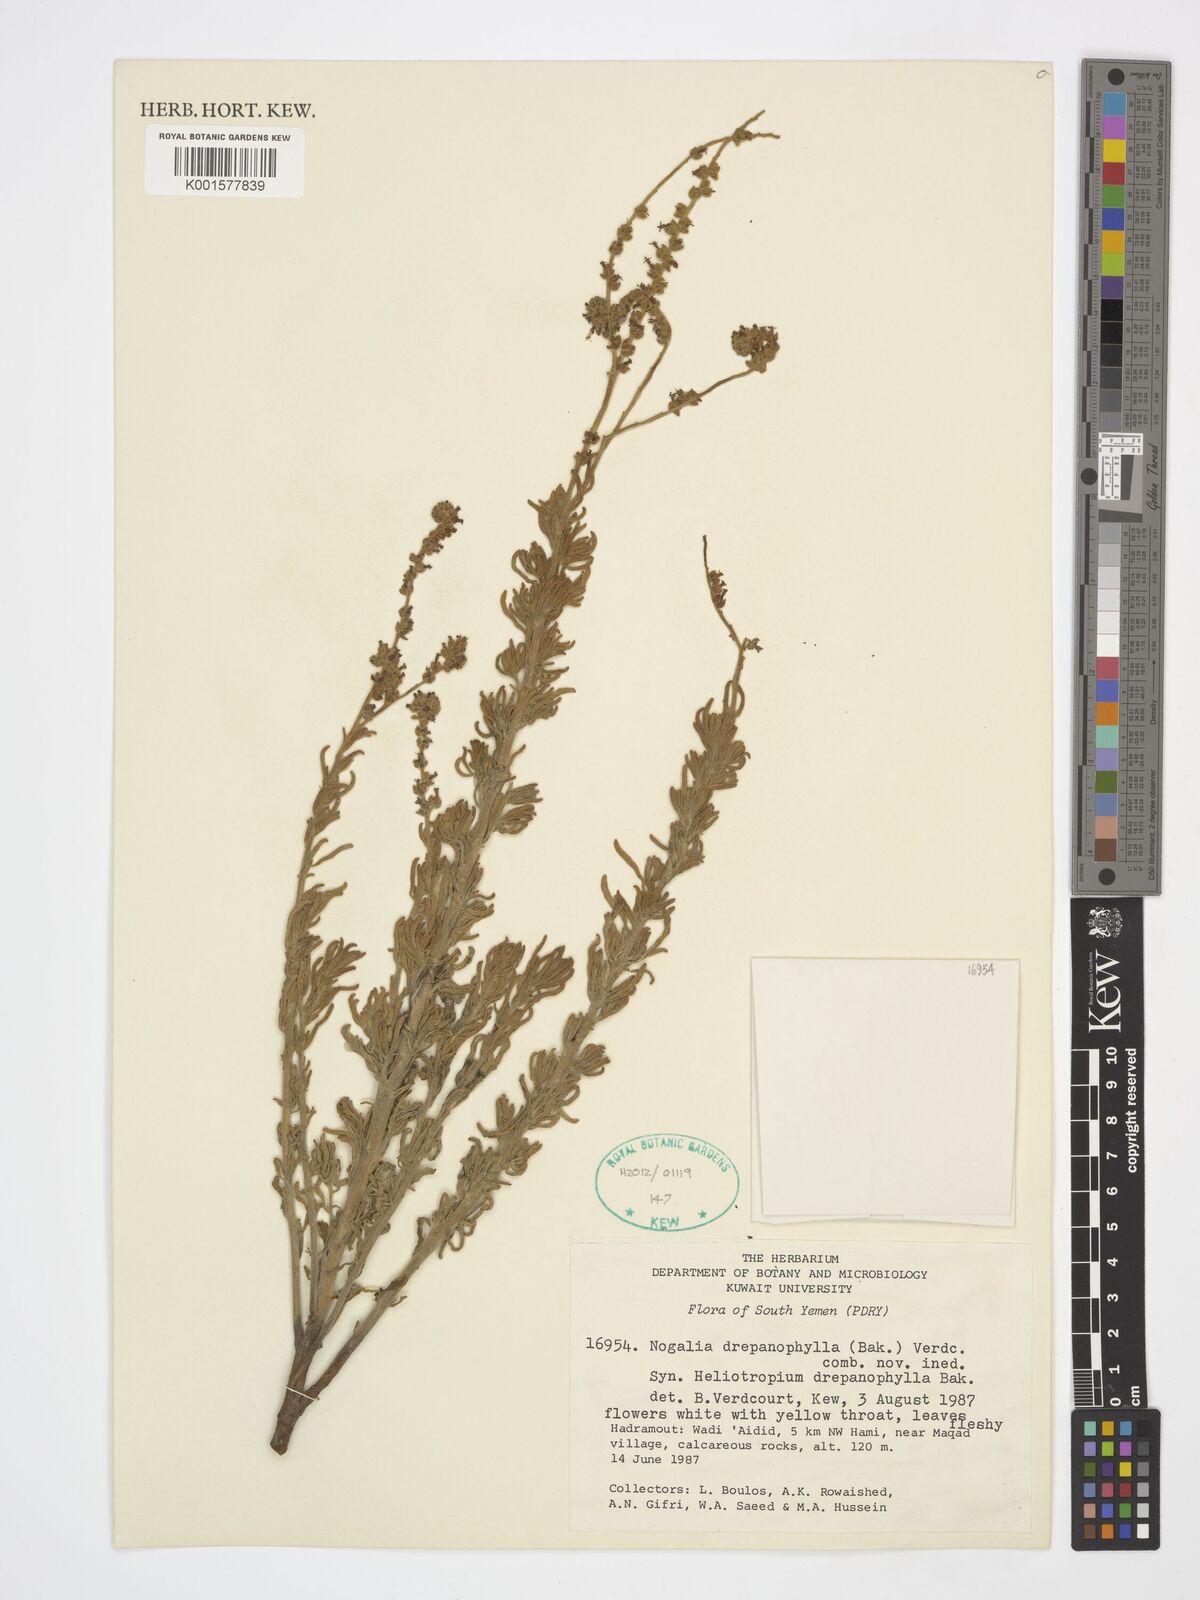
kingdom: Plantae
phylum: Tracheophyta
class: Magnoliopsida
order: Boraginales
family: Heliotropiaceae
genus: Heliotropium
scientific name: Heliotropium drepanophyllum
